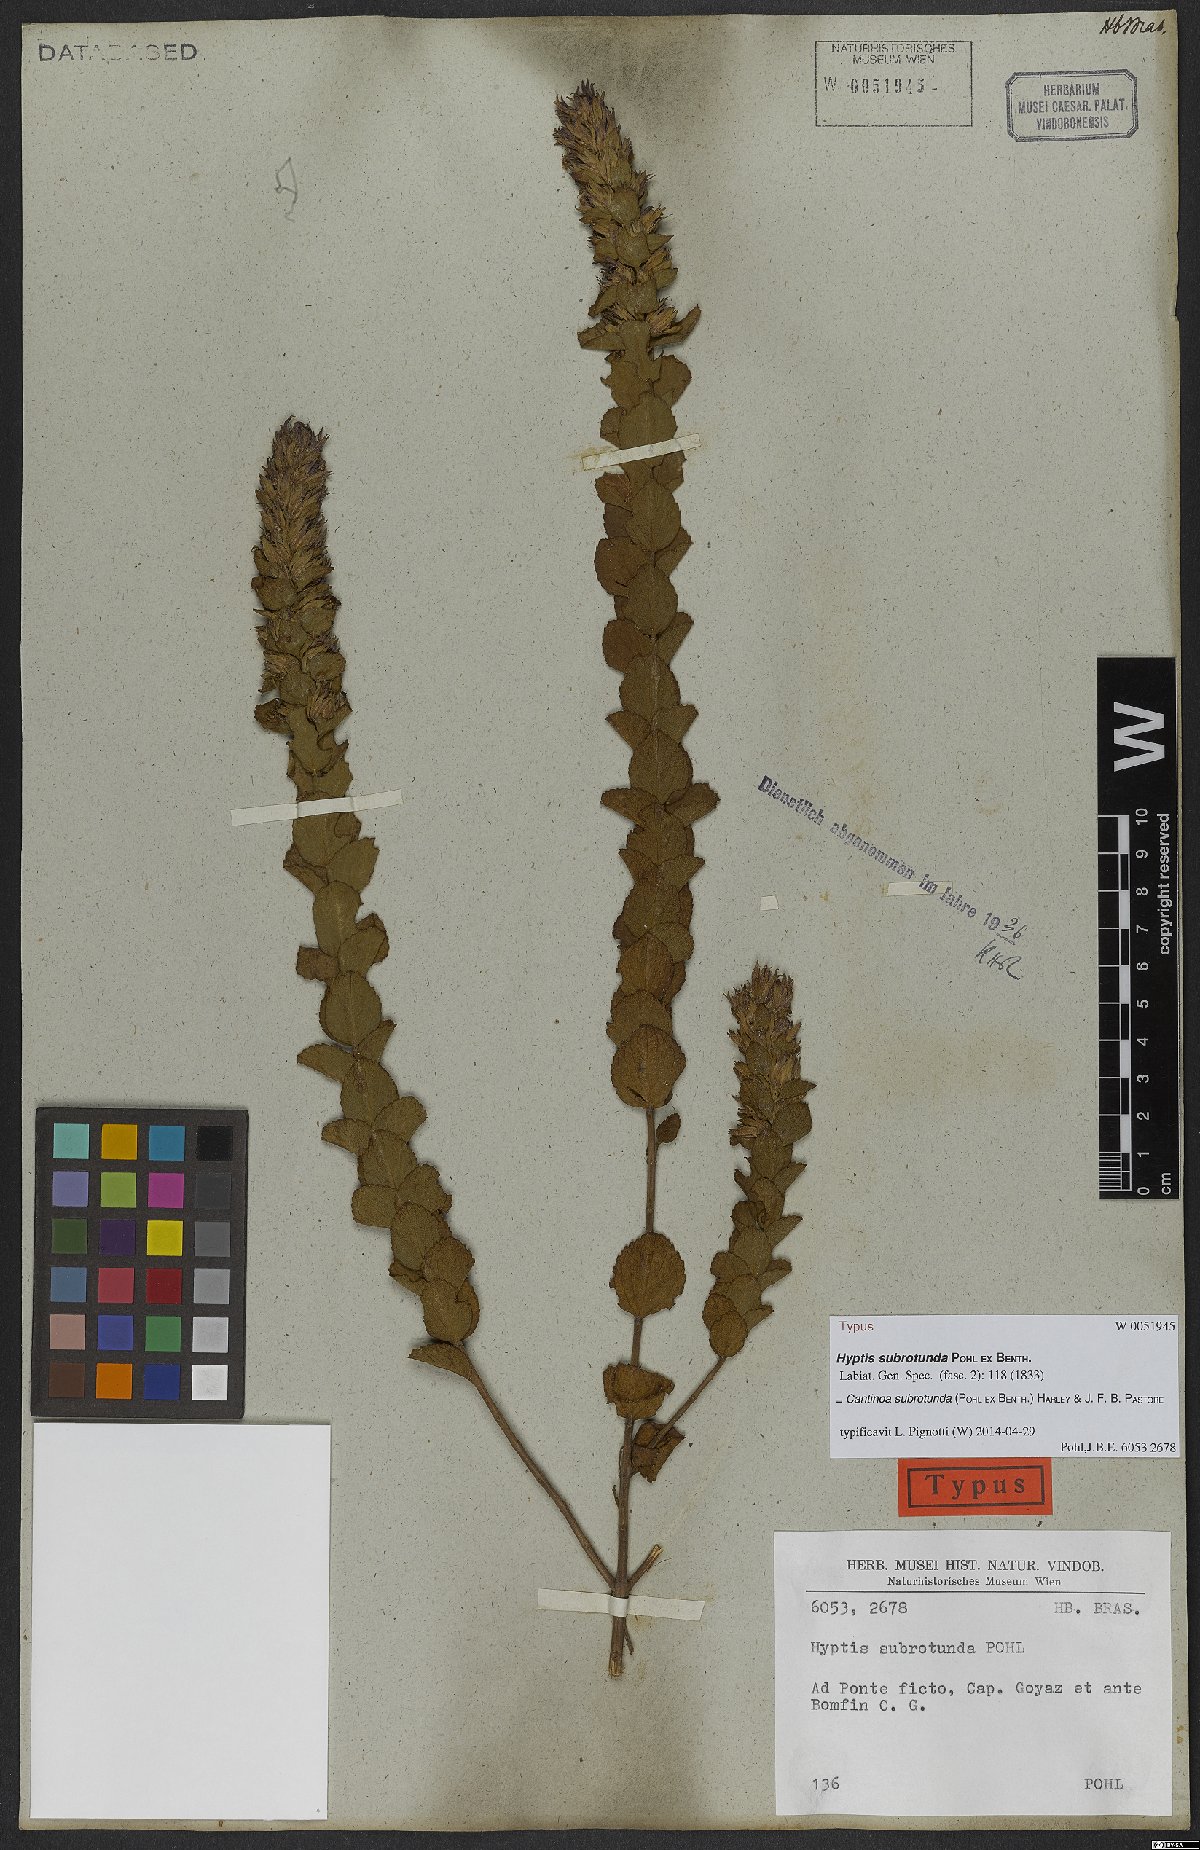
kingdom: Plantae
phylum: Tracheophyta
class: Magnoliopsida
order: Lamiales
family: Lamiaceae
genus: Cantinoa
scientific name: Cantinoa subrotunda
